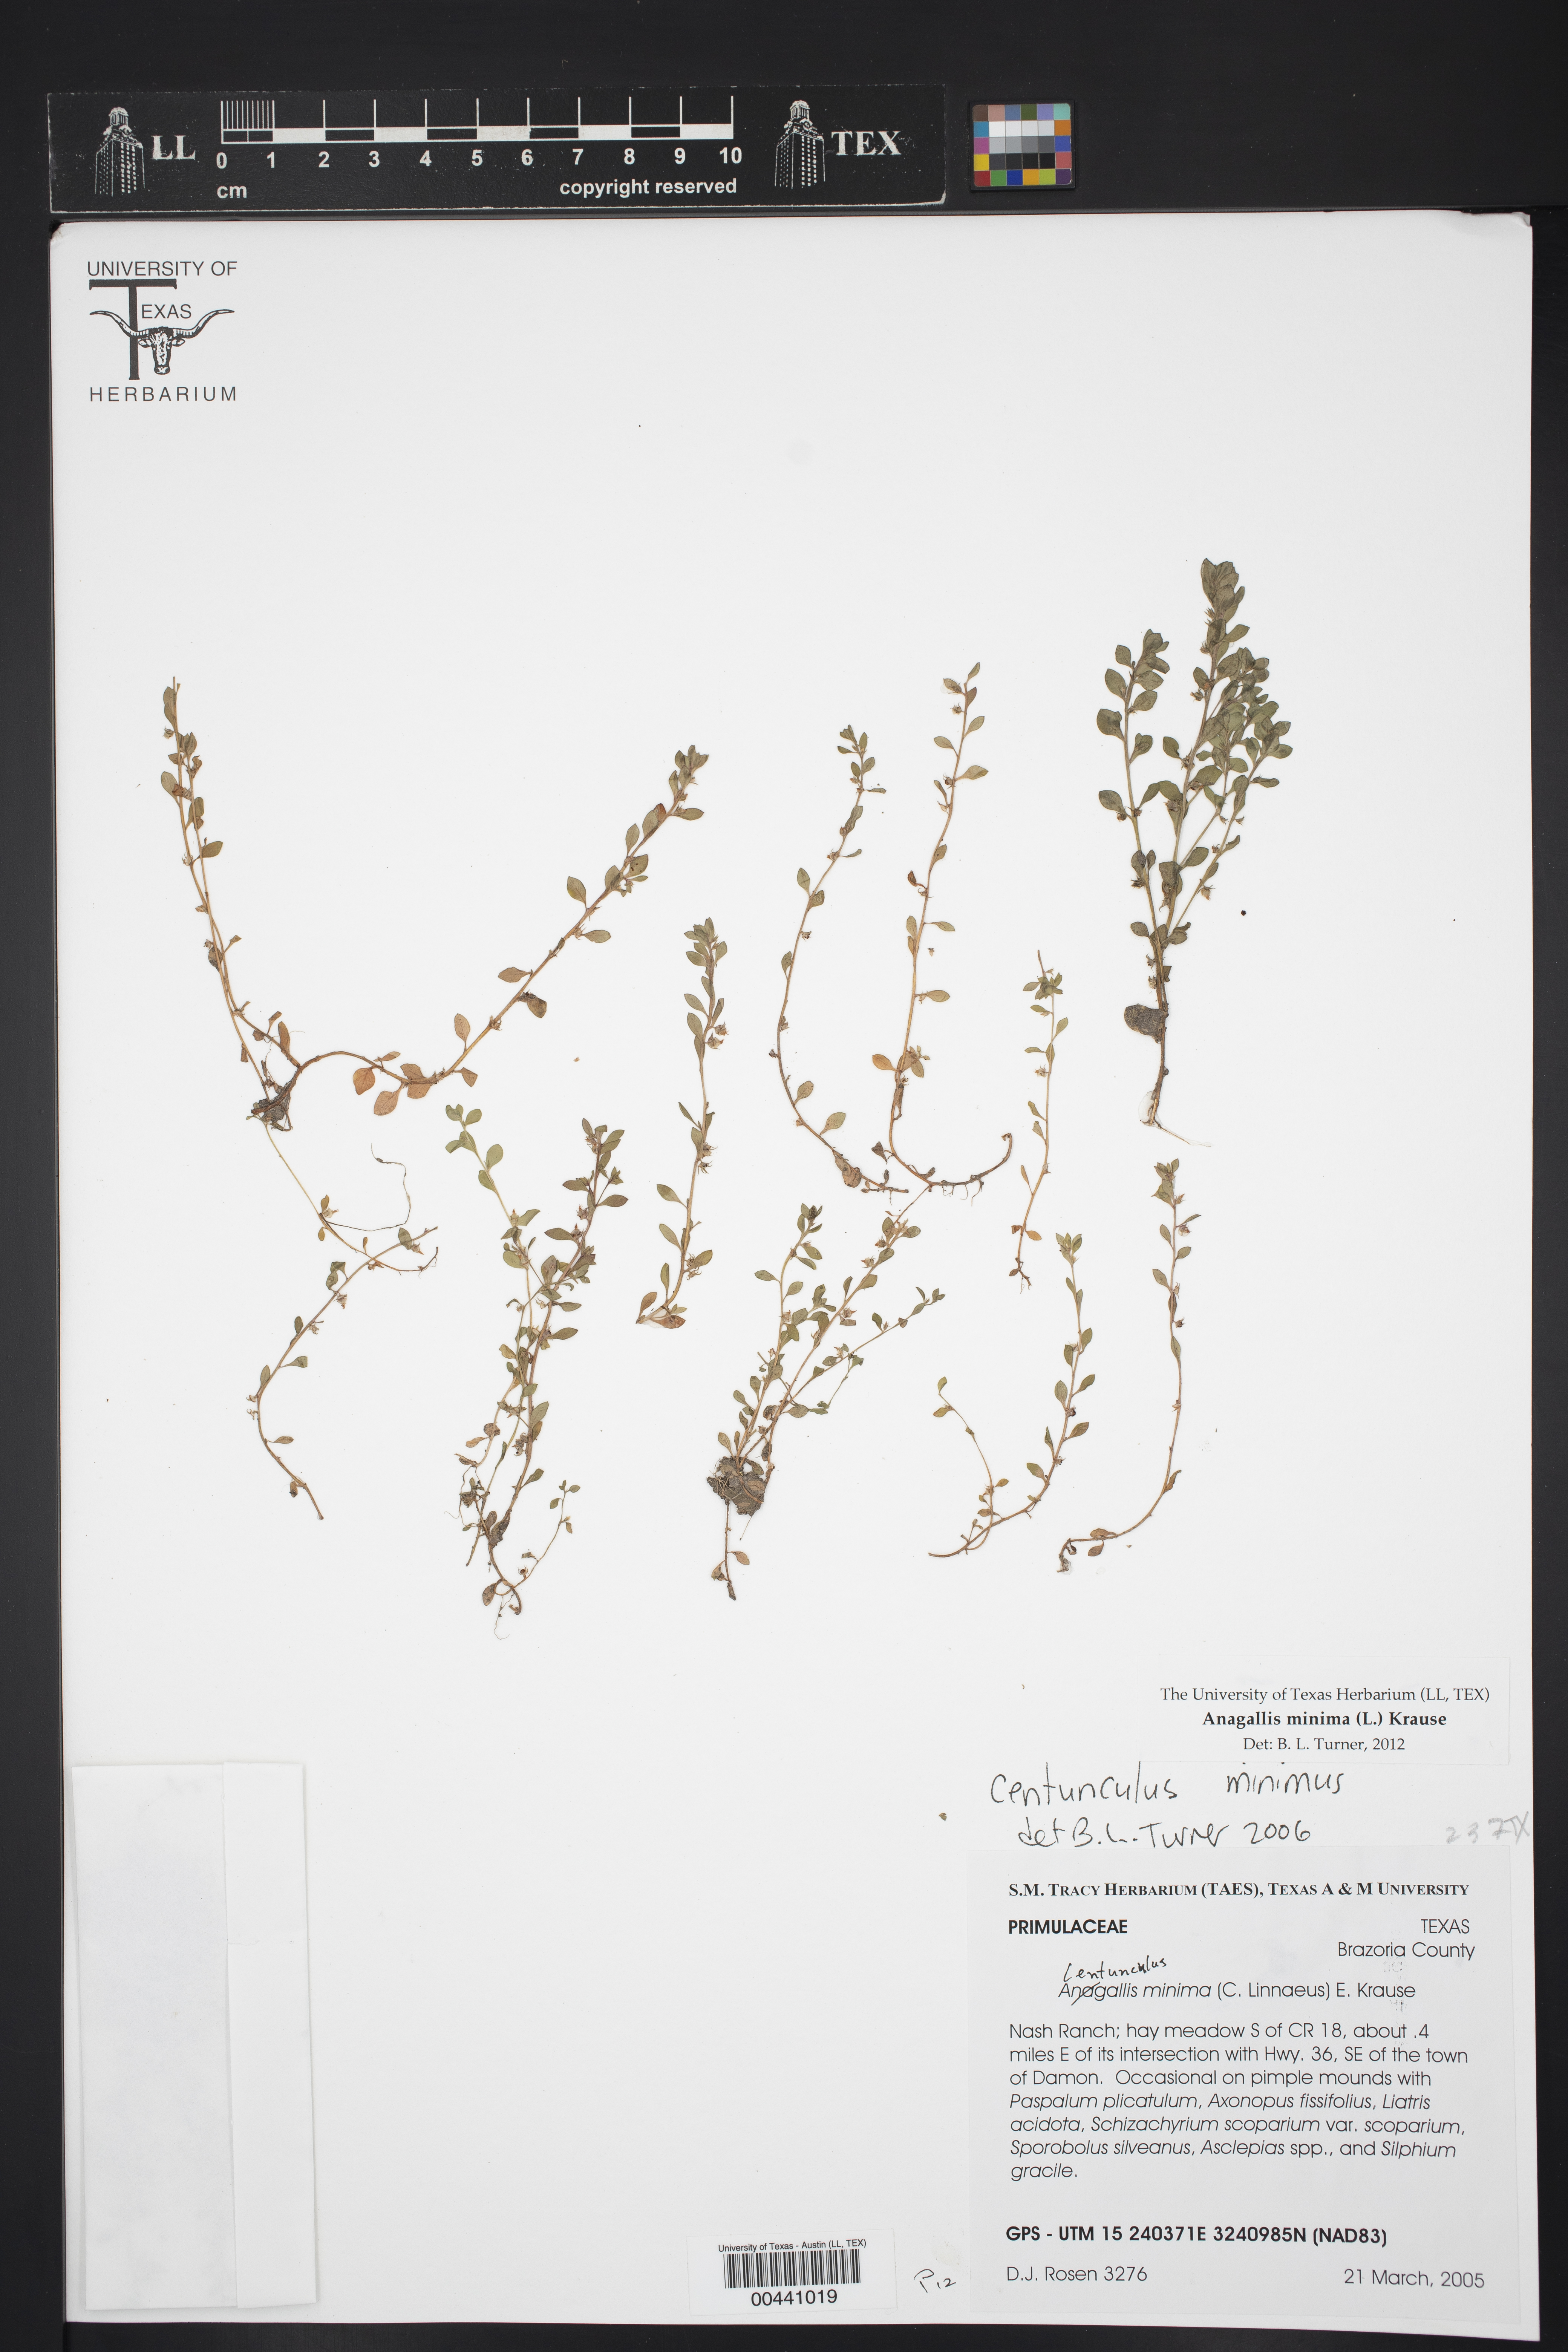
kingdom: Plantae
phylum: Tracheophyta
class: Magnoliopsida
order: Ericales
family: Primulaceae
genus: Lysimachia
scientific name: Lysimachia minima
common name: Chaffweed
